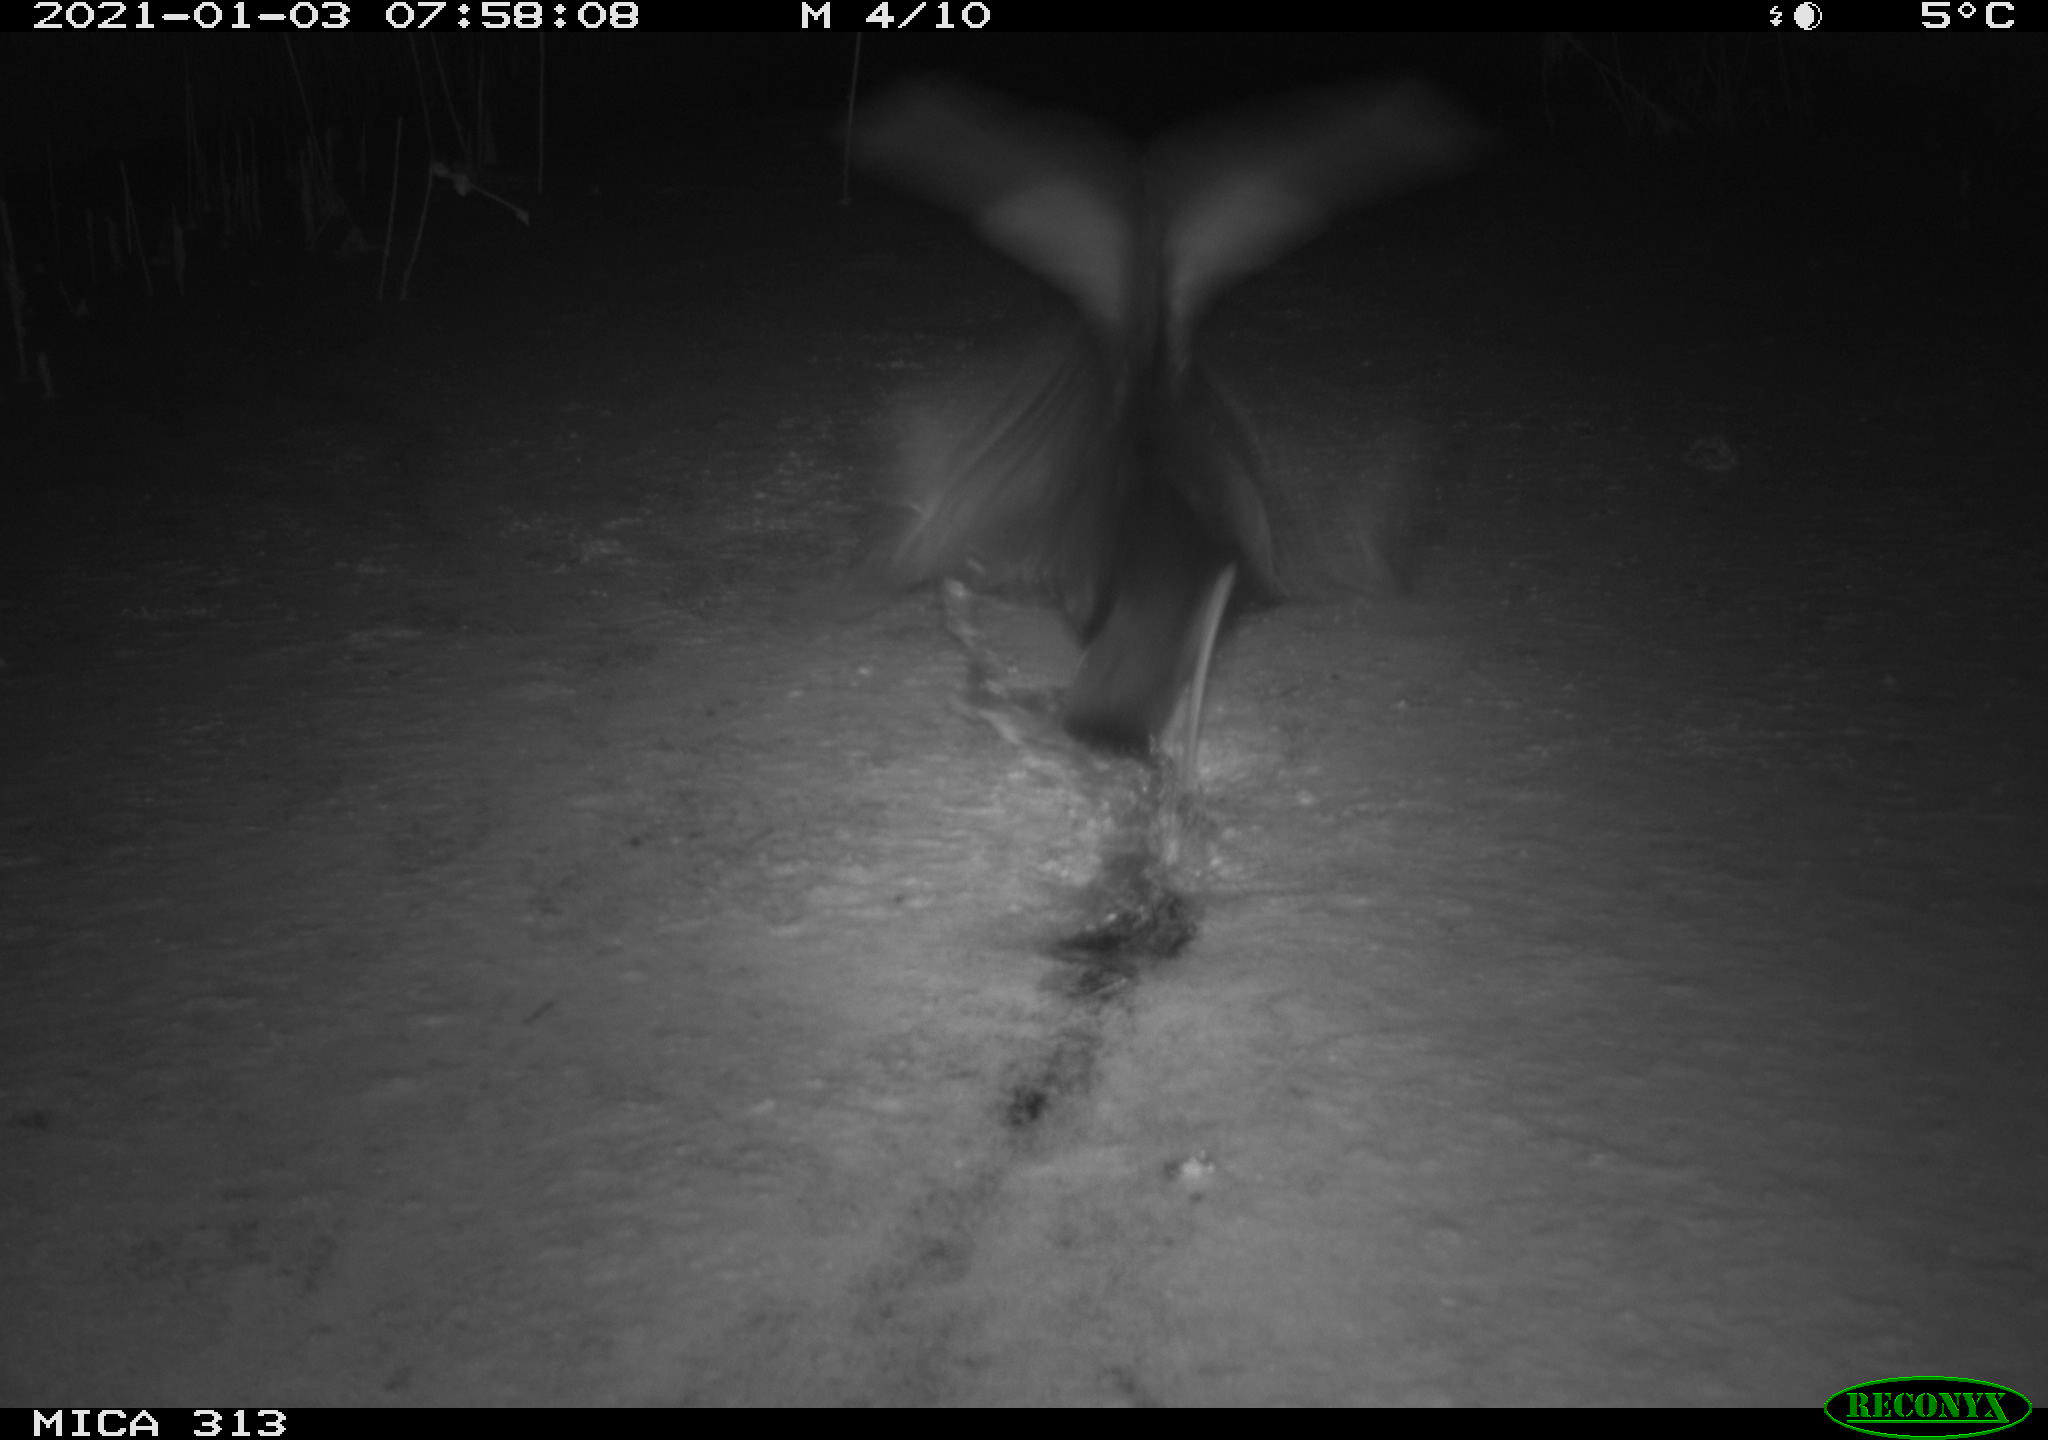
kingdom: Animalia
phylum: Chordata
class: Aves
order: Gruiformes
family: Rallidae
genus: Fulica
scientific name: Fulica atra
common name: Eurasian coot
